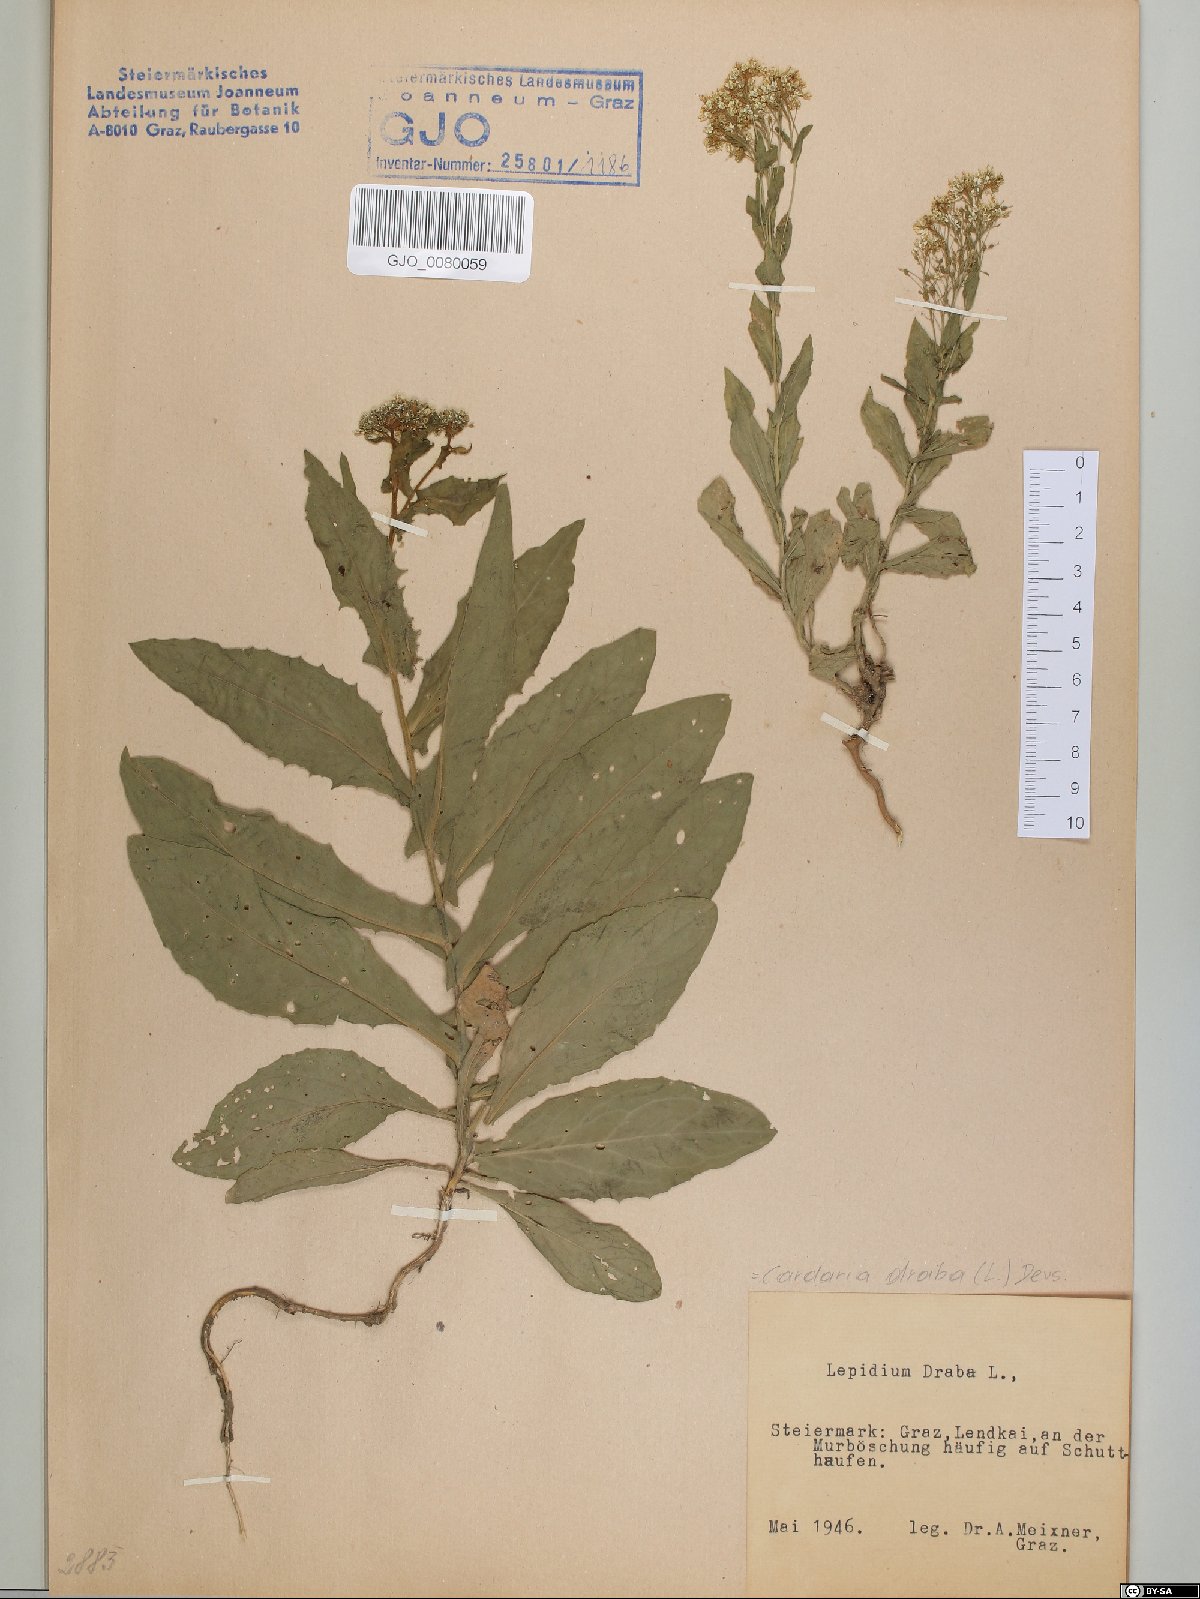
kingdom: Plantae
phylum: Tracheophyta
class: Magnoliopsida
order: Brassicales
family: Brassicaceae
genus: Lepidium
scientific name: Lepidium draba
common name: Hoary cress
